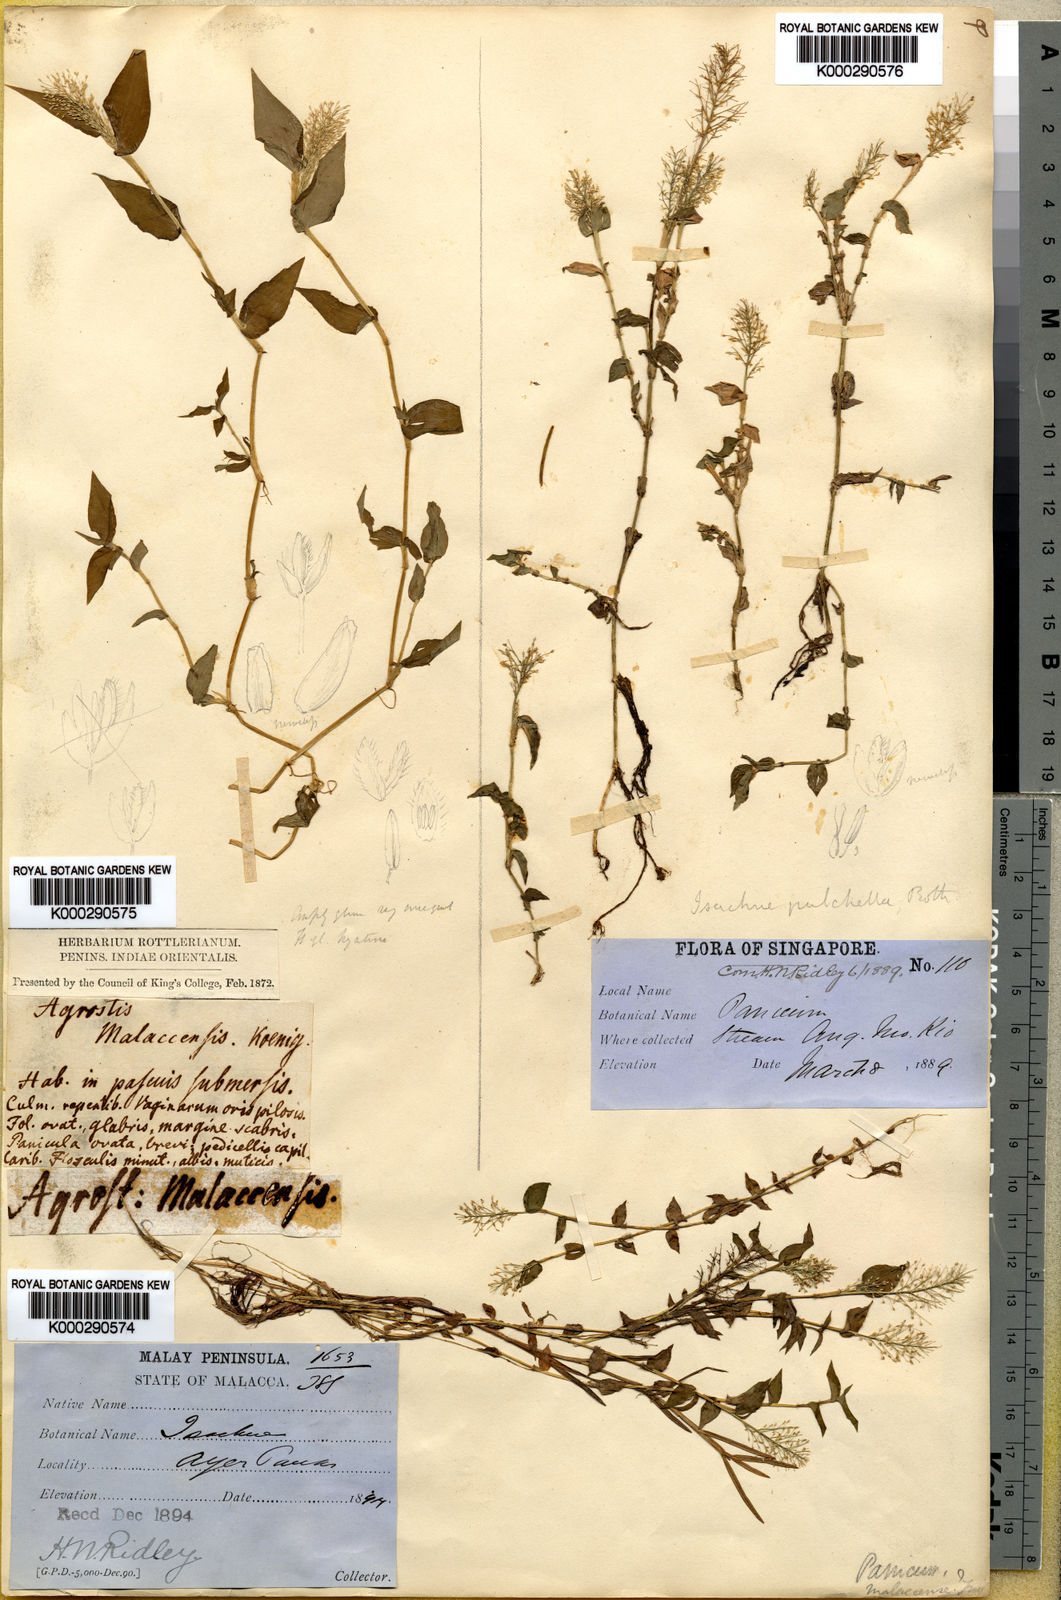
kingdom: Plantae
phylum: Tracheophyta
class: Liliopsida
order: Poales
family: Poaceae
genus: Sphaerocaryum
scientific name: Sphaerocaryum malaccense
